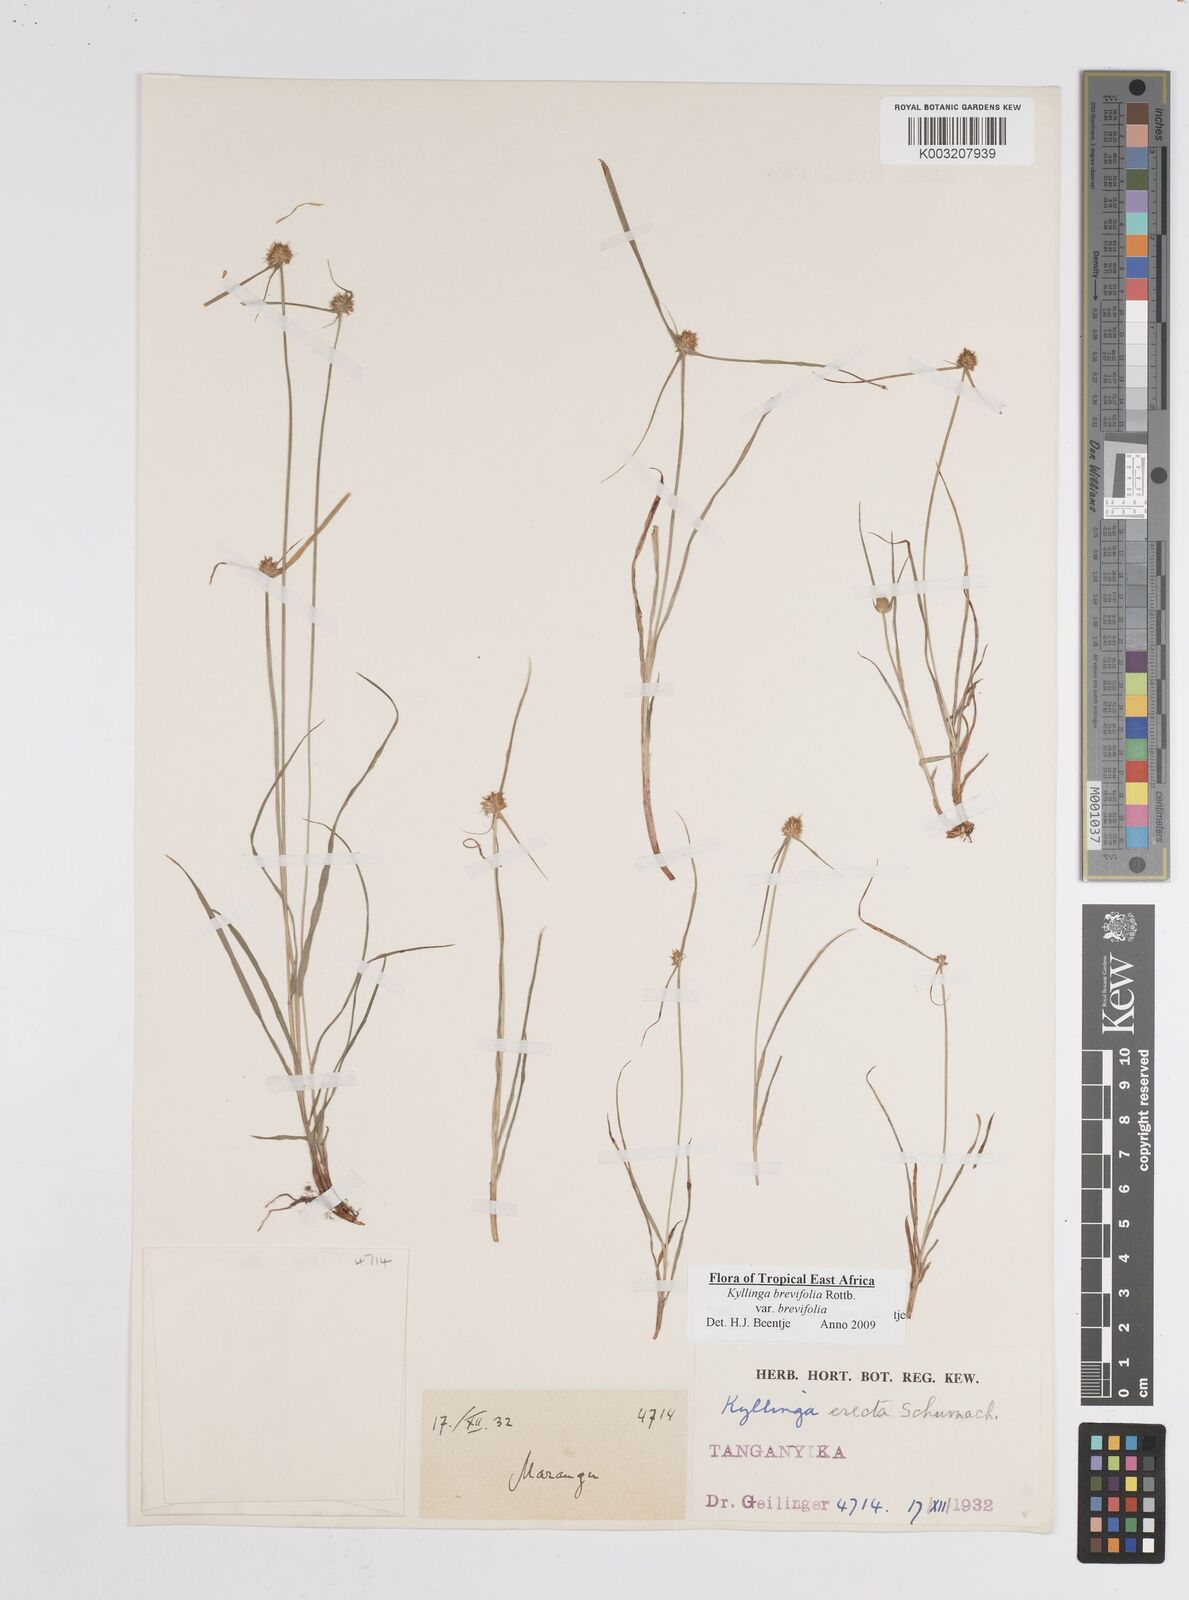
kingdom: Plantae
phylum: Tracheophyta
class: Liliopsida
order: Poales
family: Cyperaceae
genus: Cyperus
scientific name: Cyperus brevifolius
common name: Globe kyllinga
